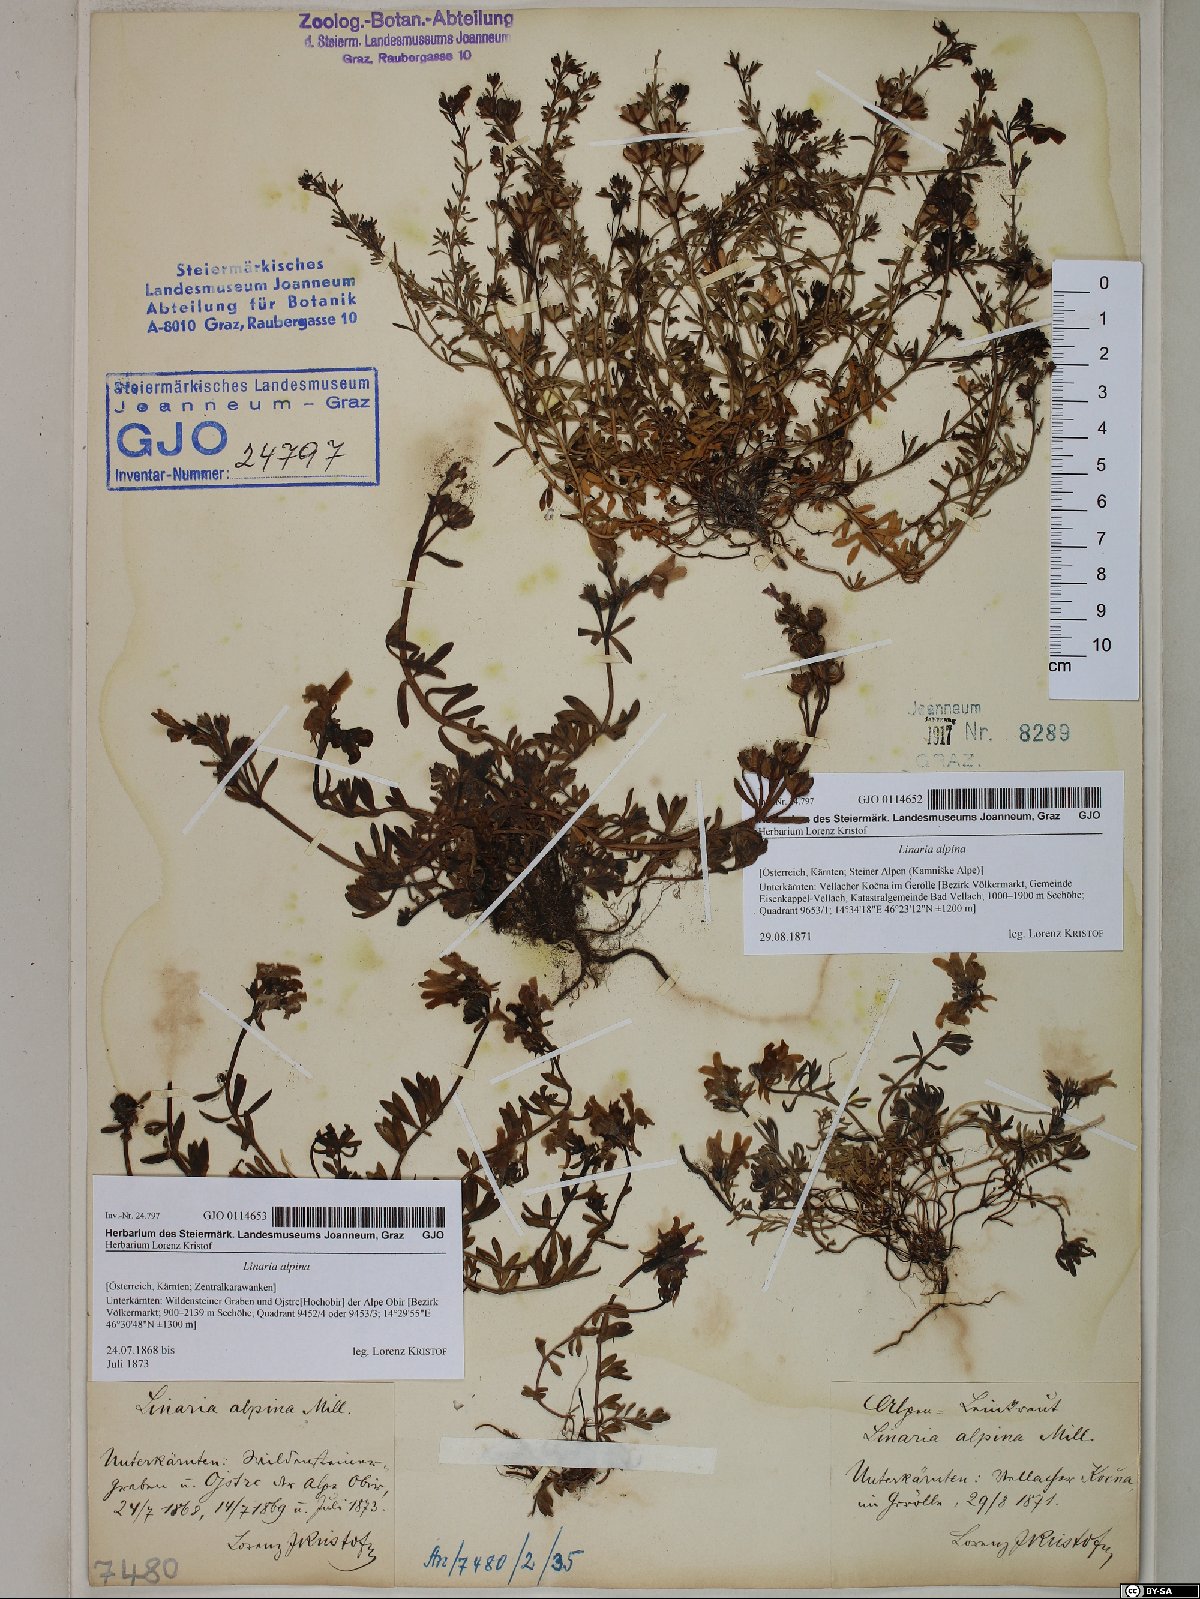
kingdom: Plantae
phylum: Tracheophyta
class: Magnoliopsida
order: Lamiales
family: Plantaginaceae
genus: Linaria
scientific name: Linaria alpina
